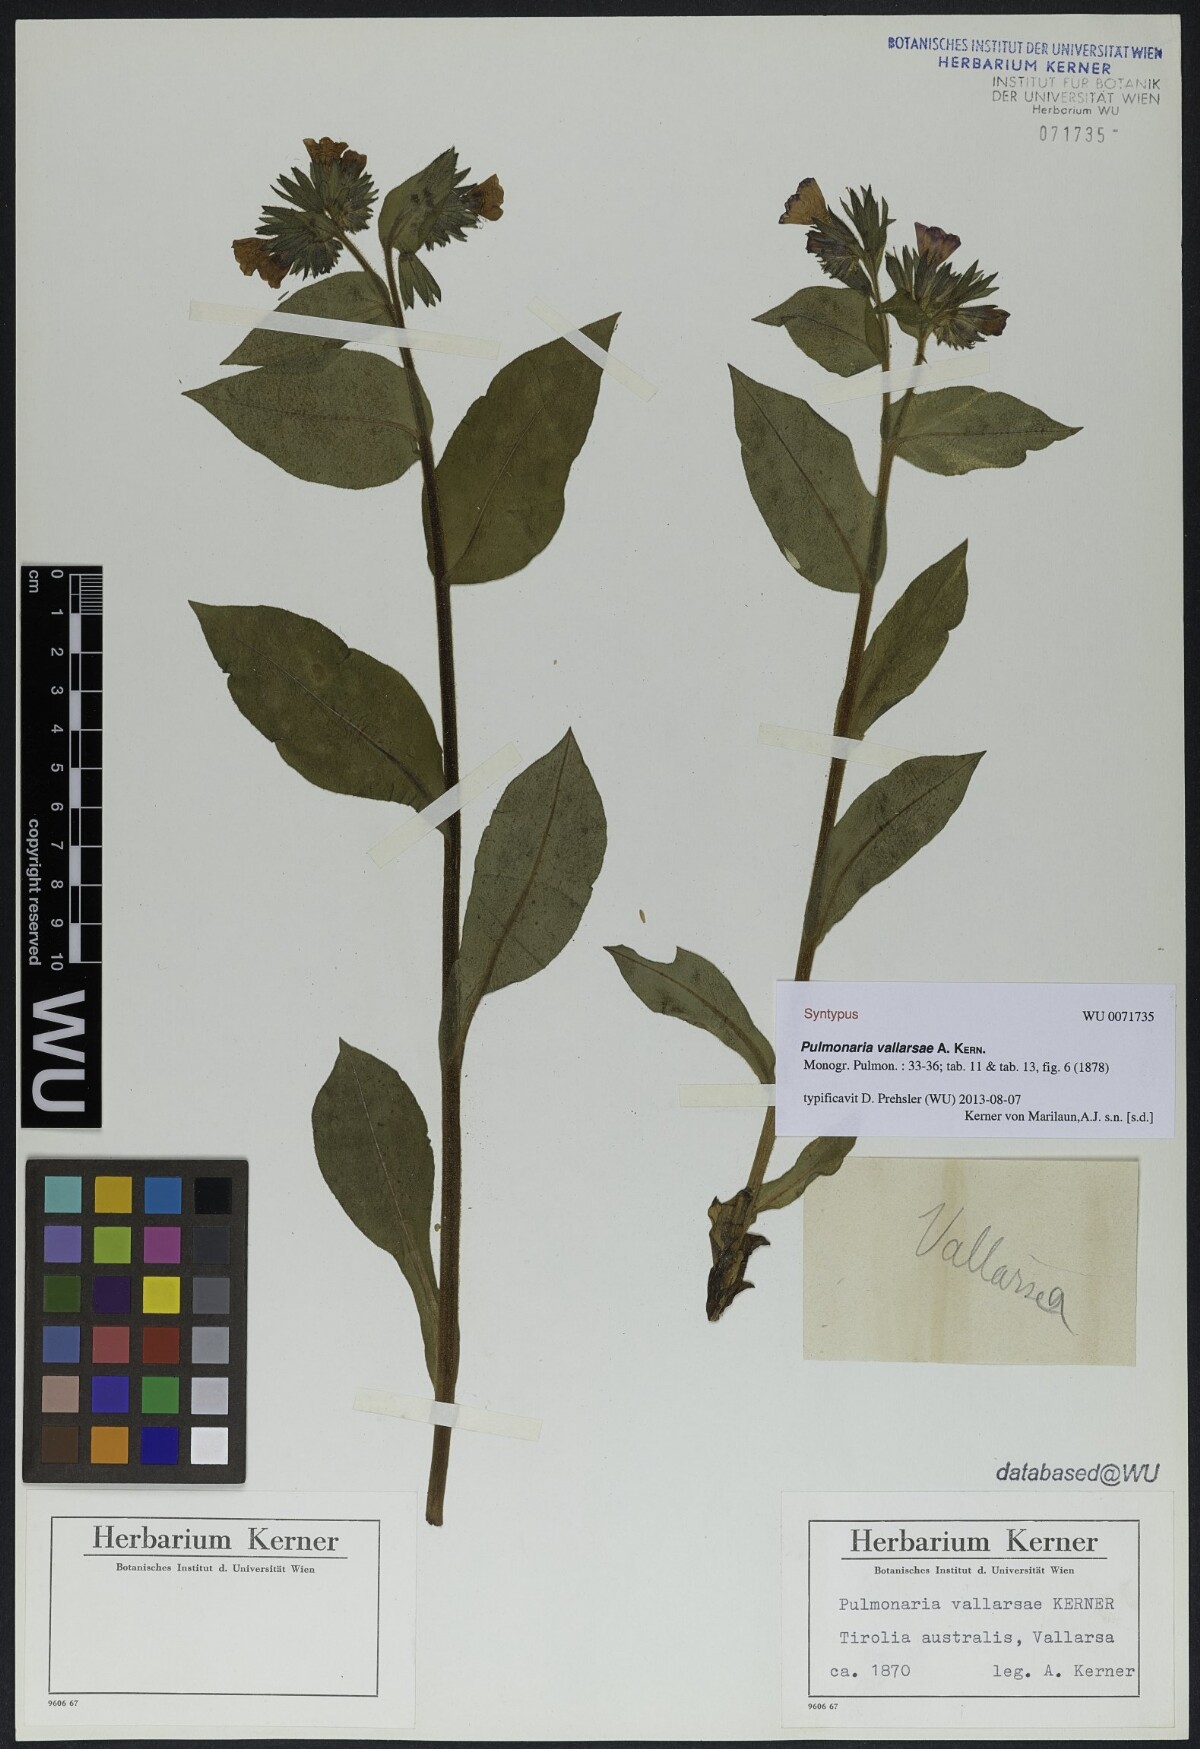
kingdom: Plantae
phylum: Tracheophyta
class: Magnoliopsida
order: Boraginales
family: Boraginaceae
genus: Pulmonaria
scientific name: Pulmonaria hirta
